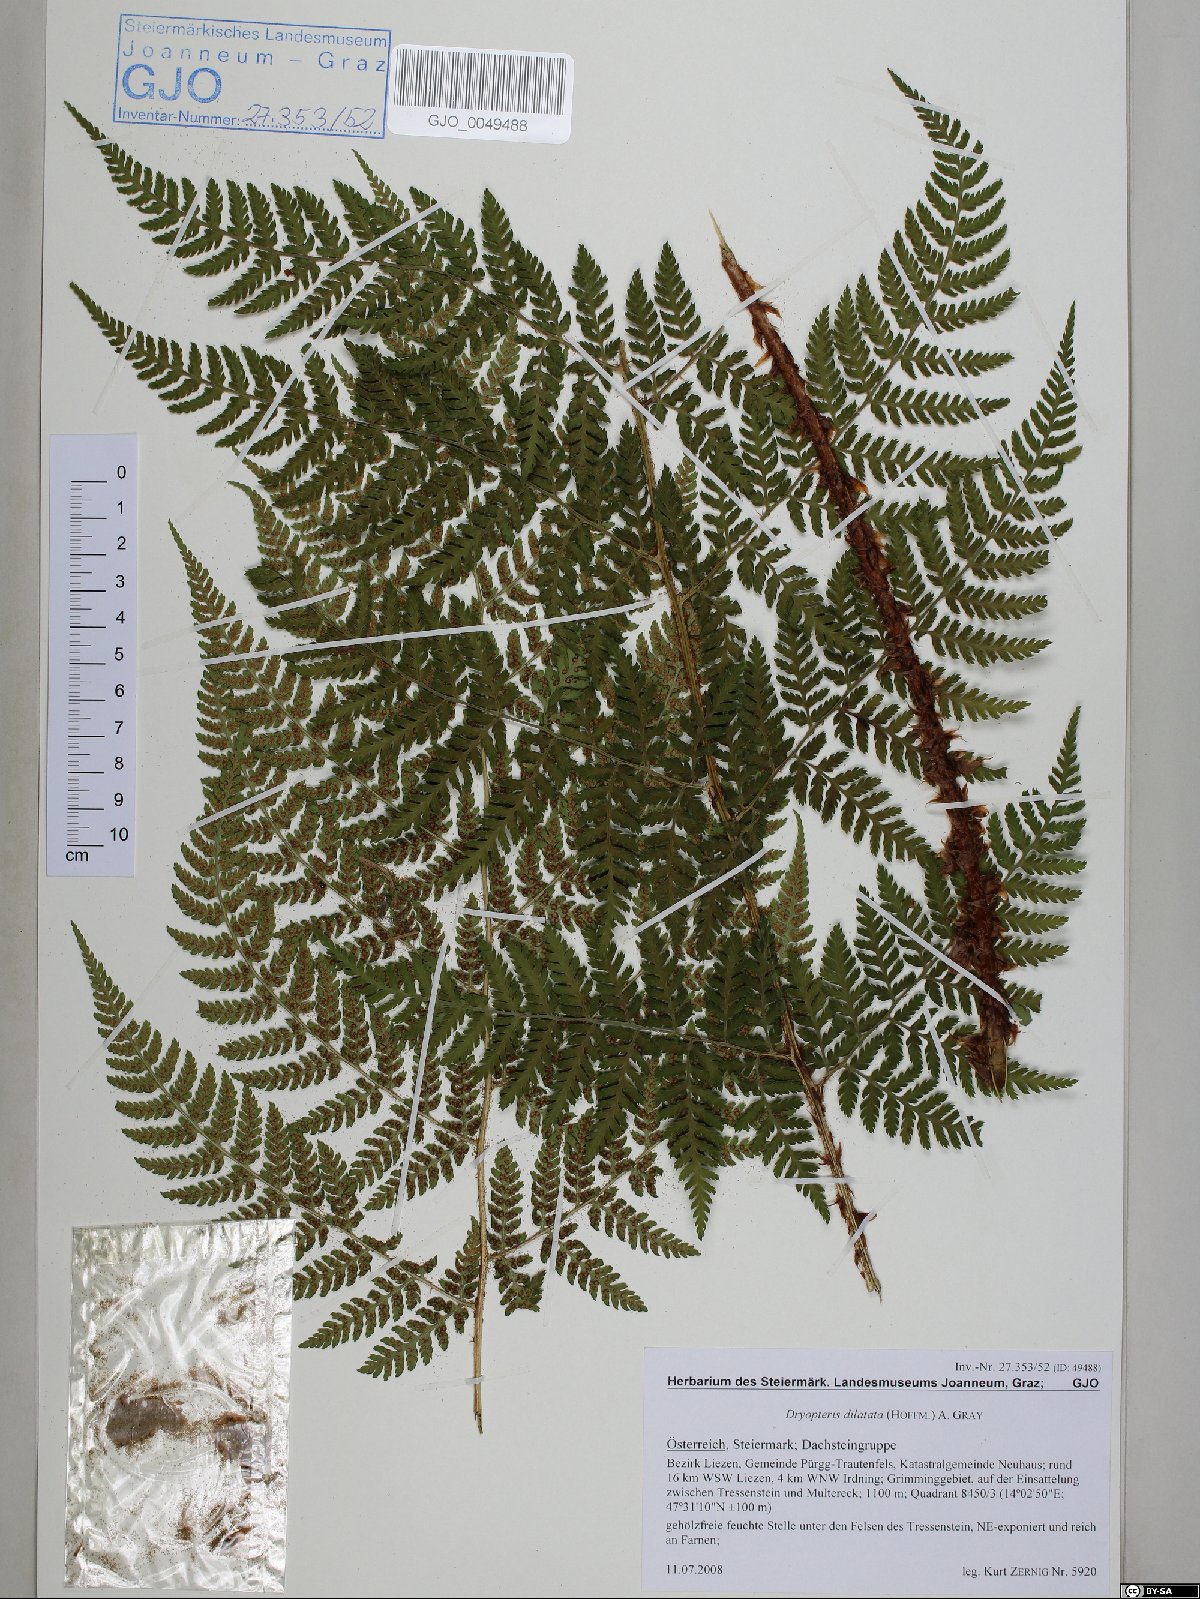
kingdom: Plantae
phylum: Tracheophyta
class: Polypodiopsida
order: Polypodiales
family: Dryopteridaceae
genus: Dryopteris
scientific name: Dryopteris dilatata
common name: Broad buckler-fern
